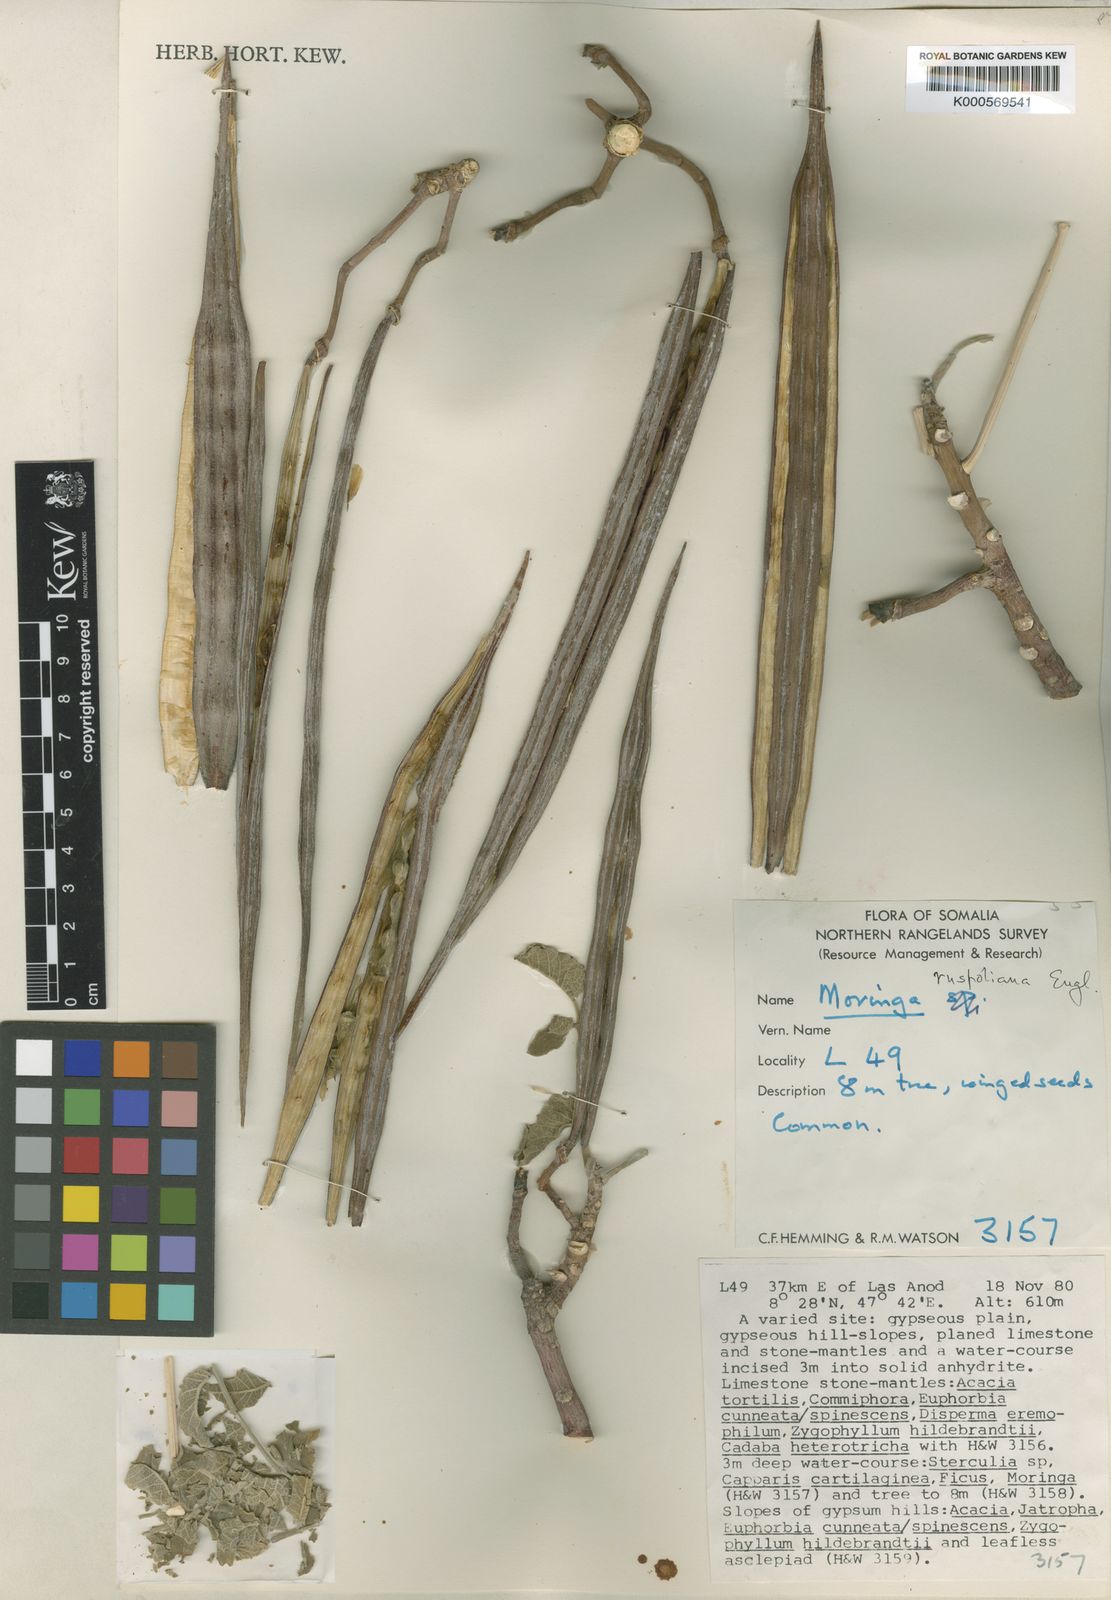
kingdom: Plantae
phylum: Tracheophyta
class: Magnoliopsida
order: Brassicales
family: Moringaceae
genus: Moringa
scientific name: Moringa ruspoliana
